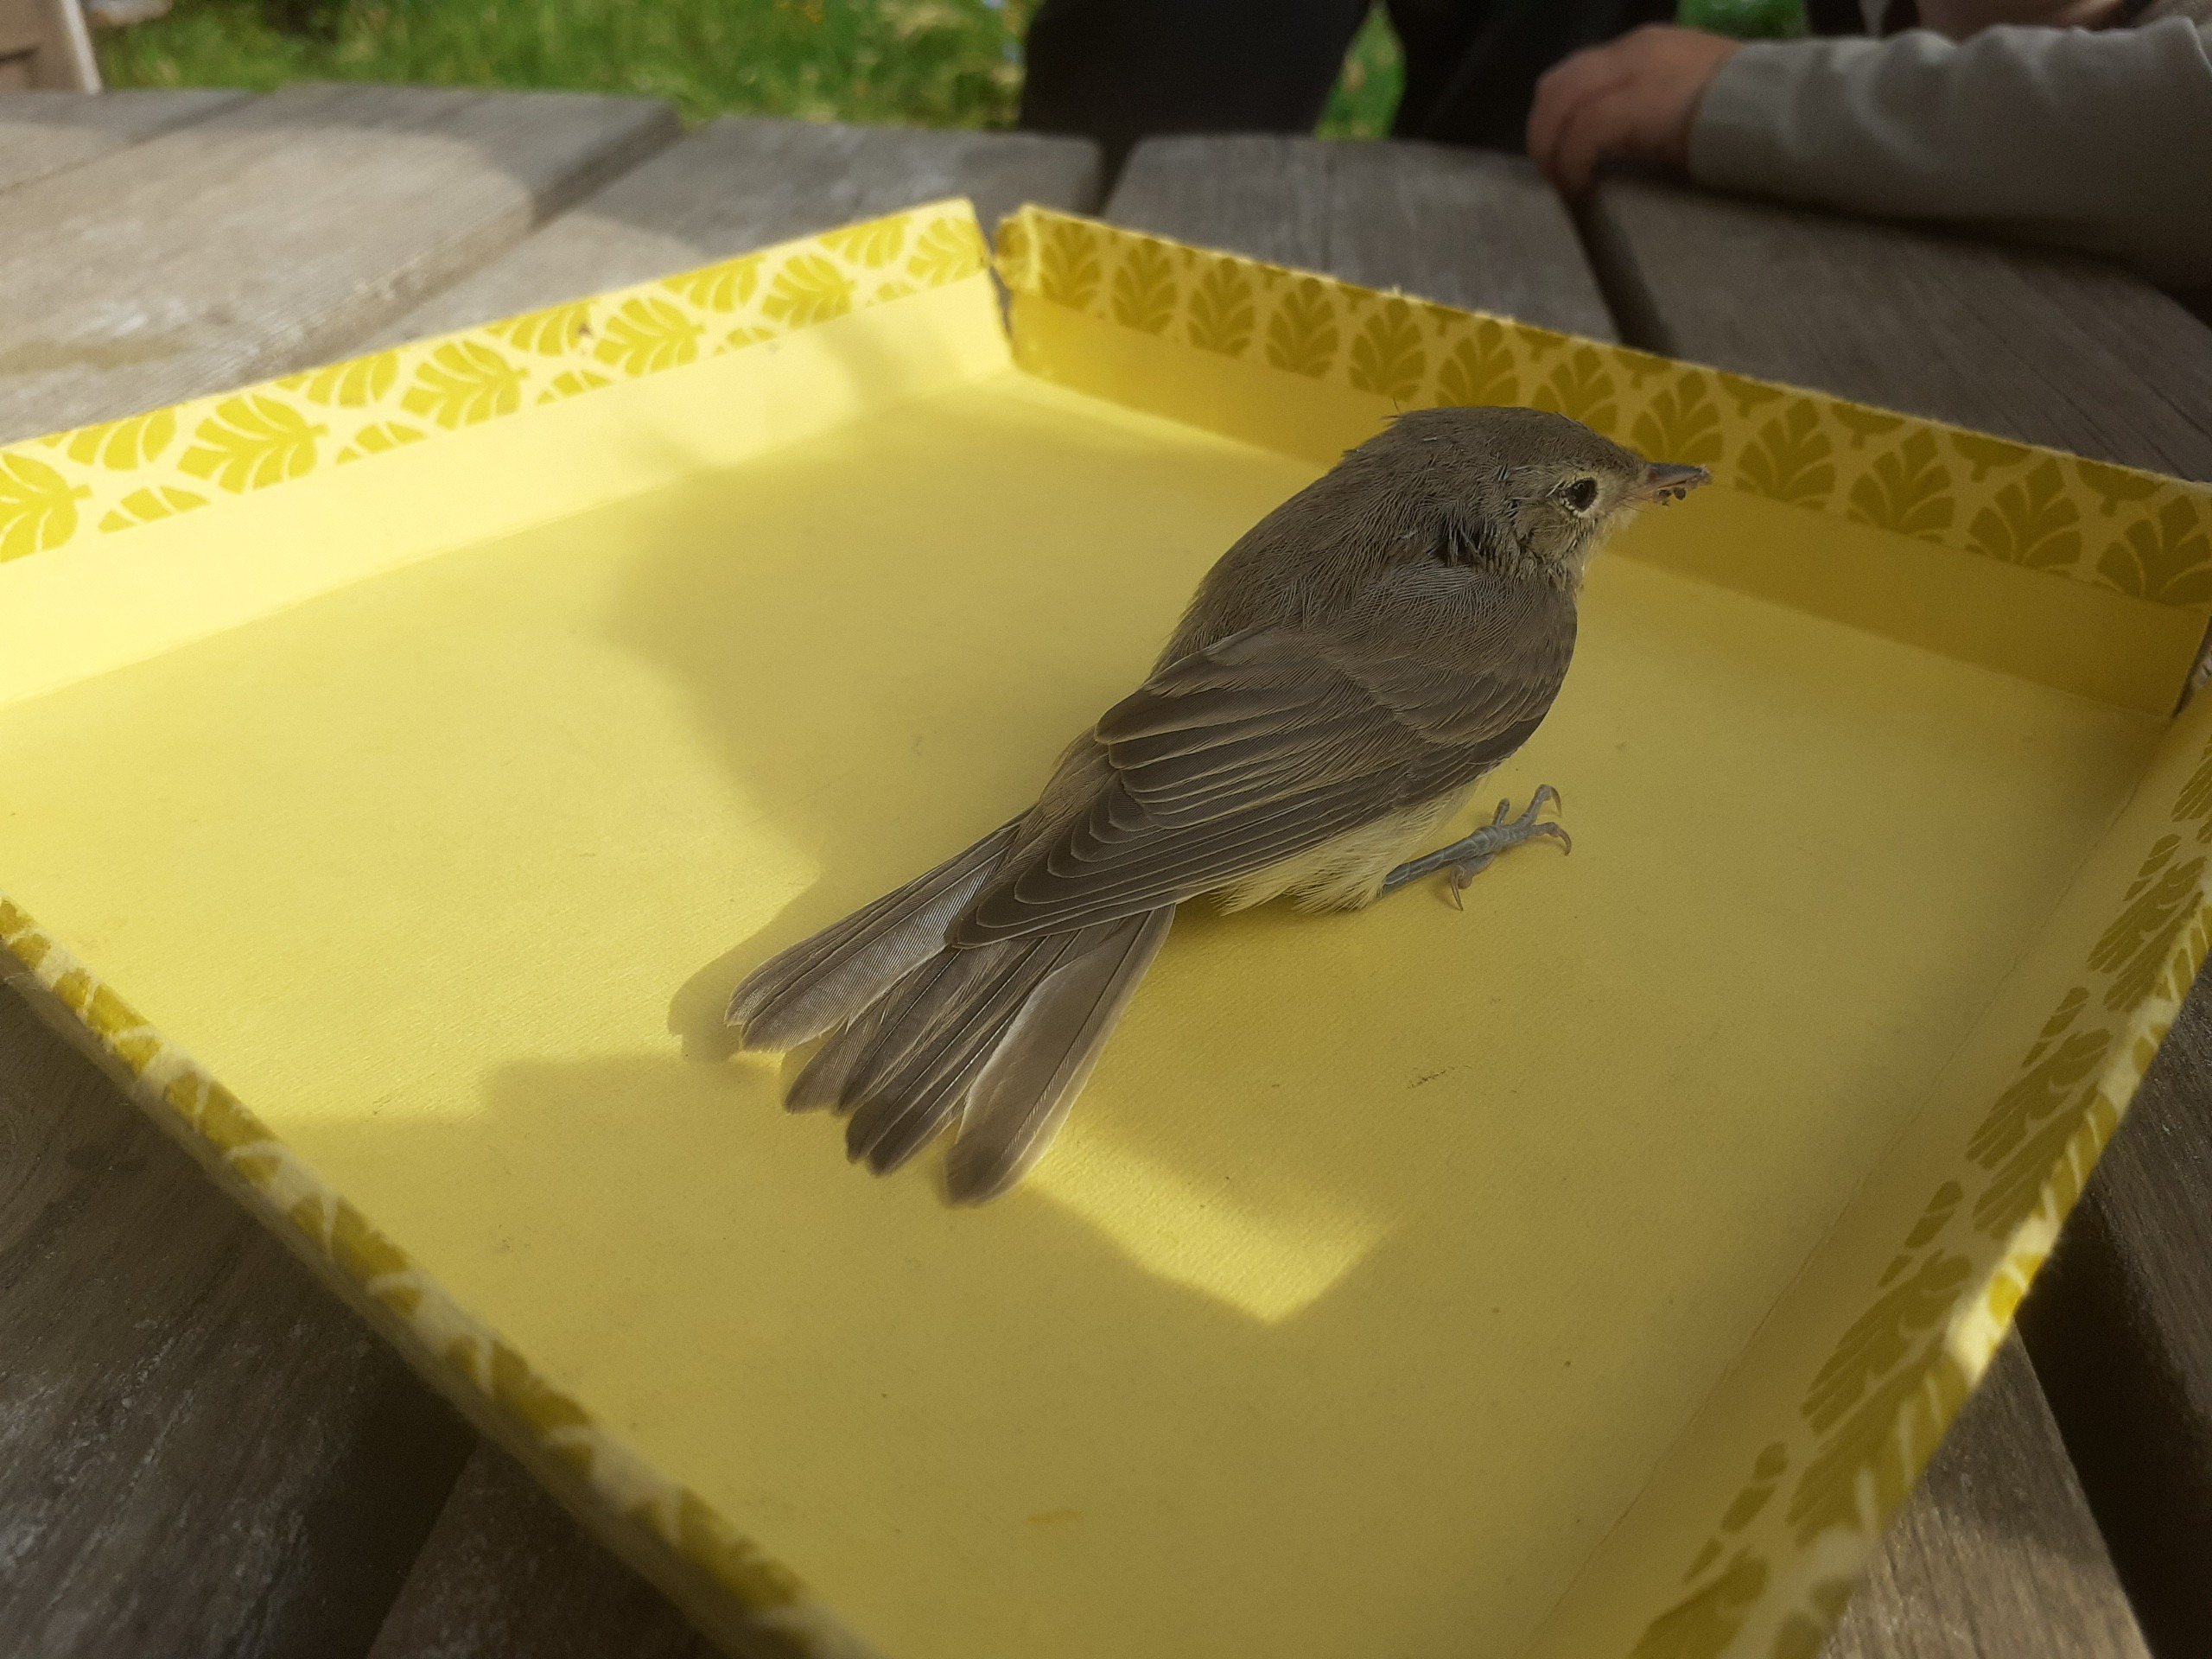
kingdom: Animalia
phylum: Chordata
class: Aves
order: Passeriformes
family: Acrocephalidae
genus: Hippolais
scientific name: Hippolais icterina
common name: Gulbug
